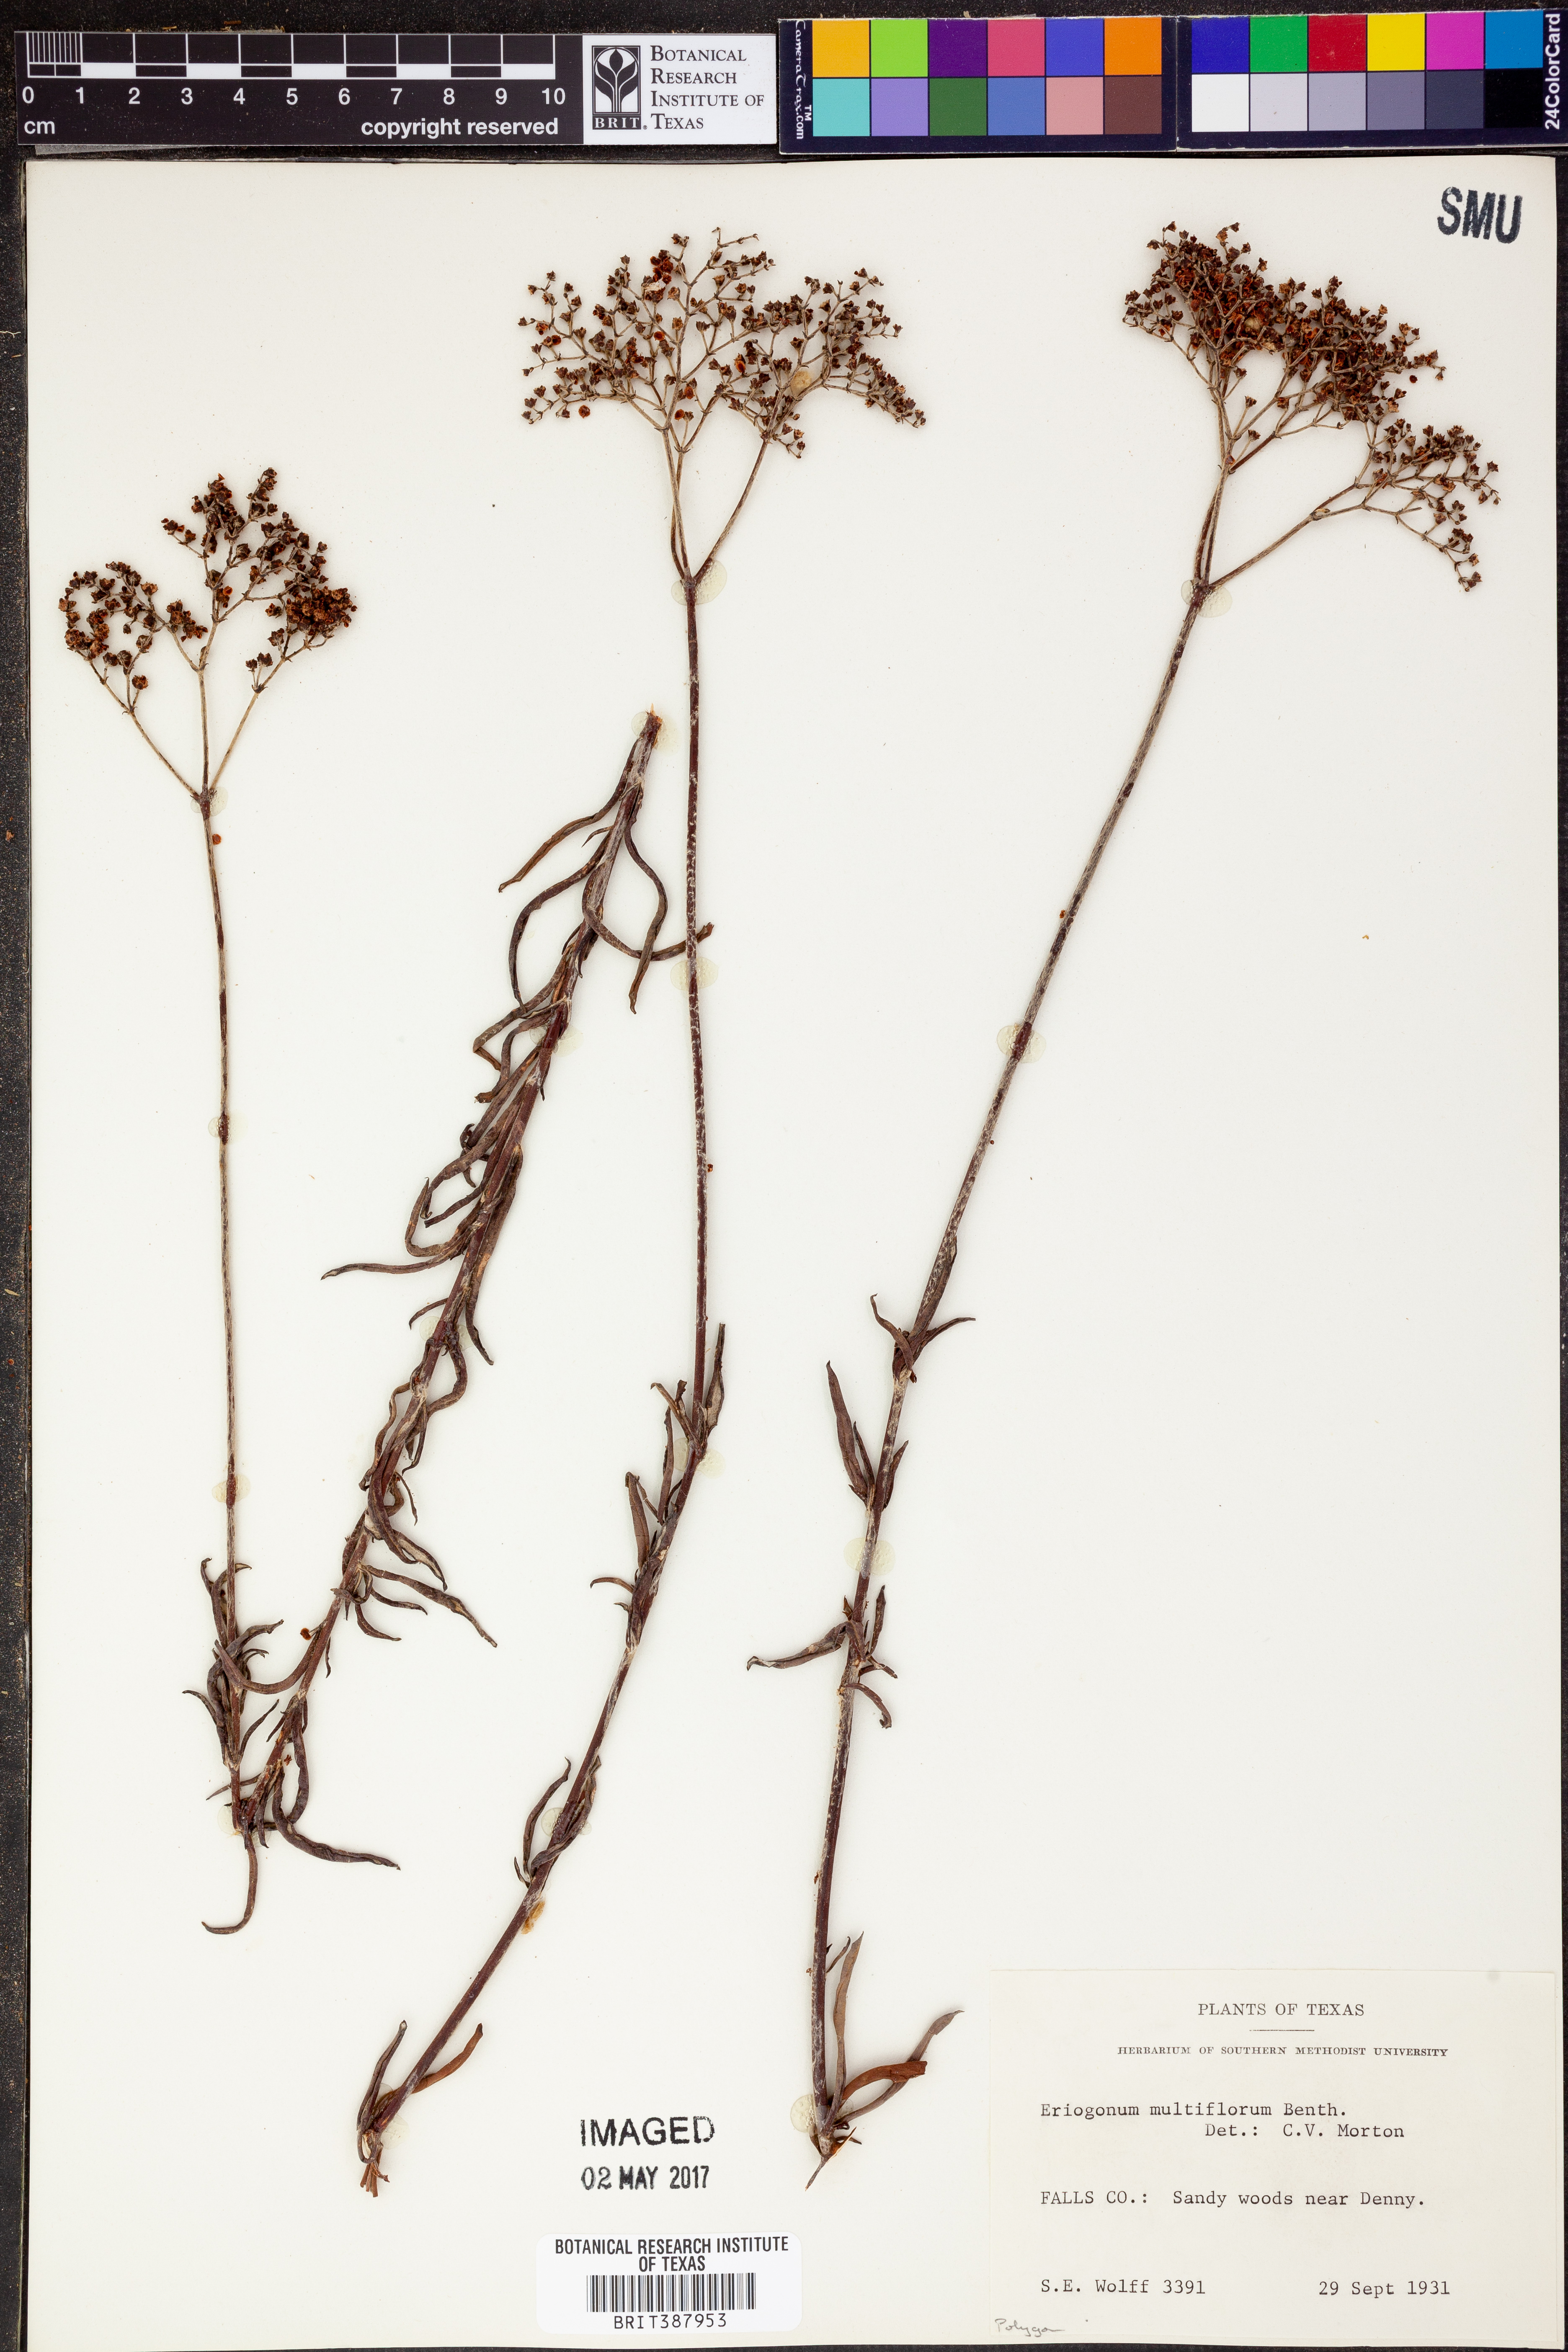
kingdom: Plantae
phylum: Tracheophyta
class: Magnoliopsida
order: Caryophyllales
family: Polygonaceae
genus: Eriogonum
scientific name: Eriogonum multiflorum
